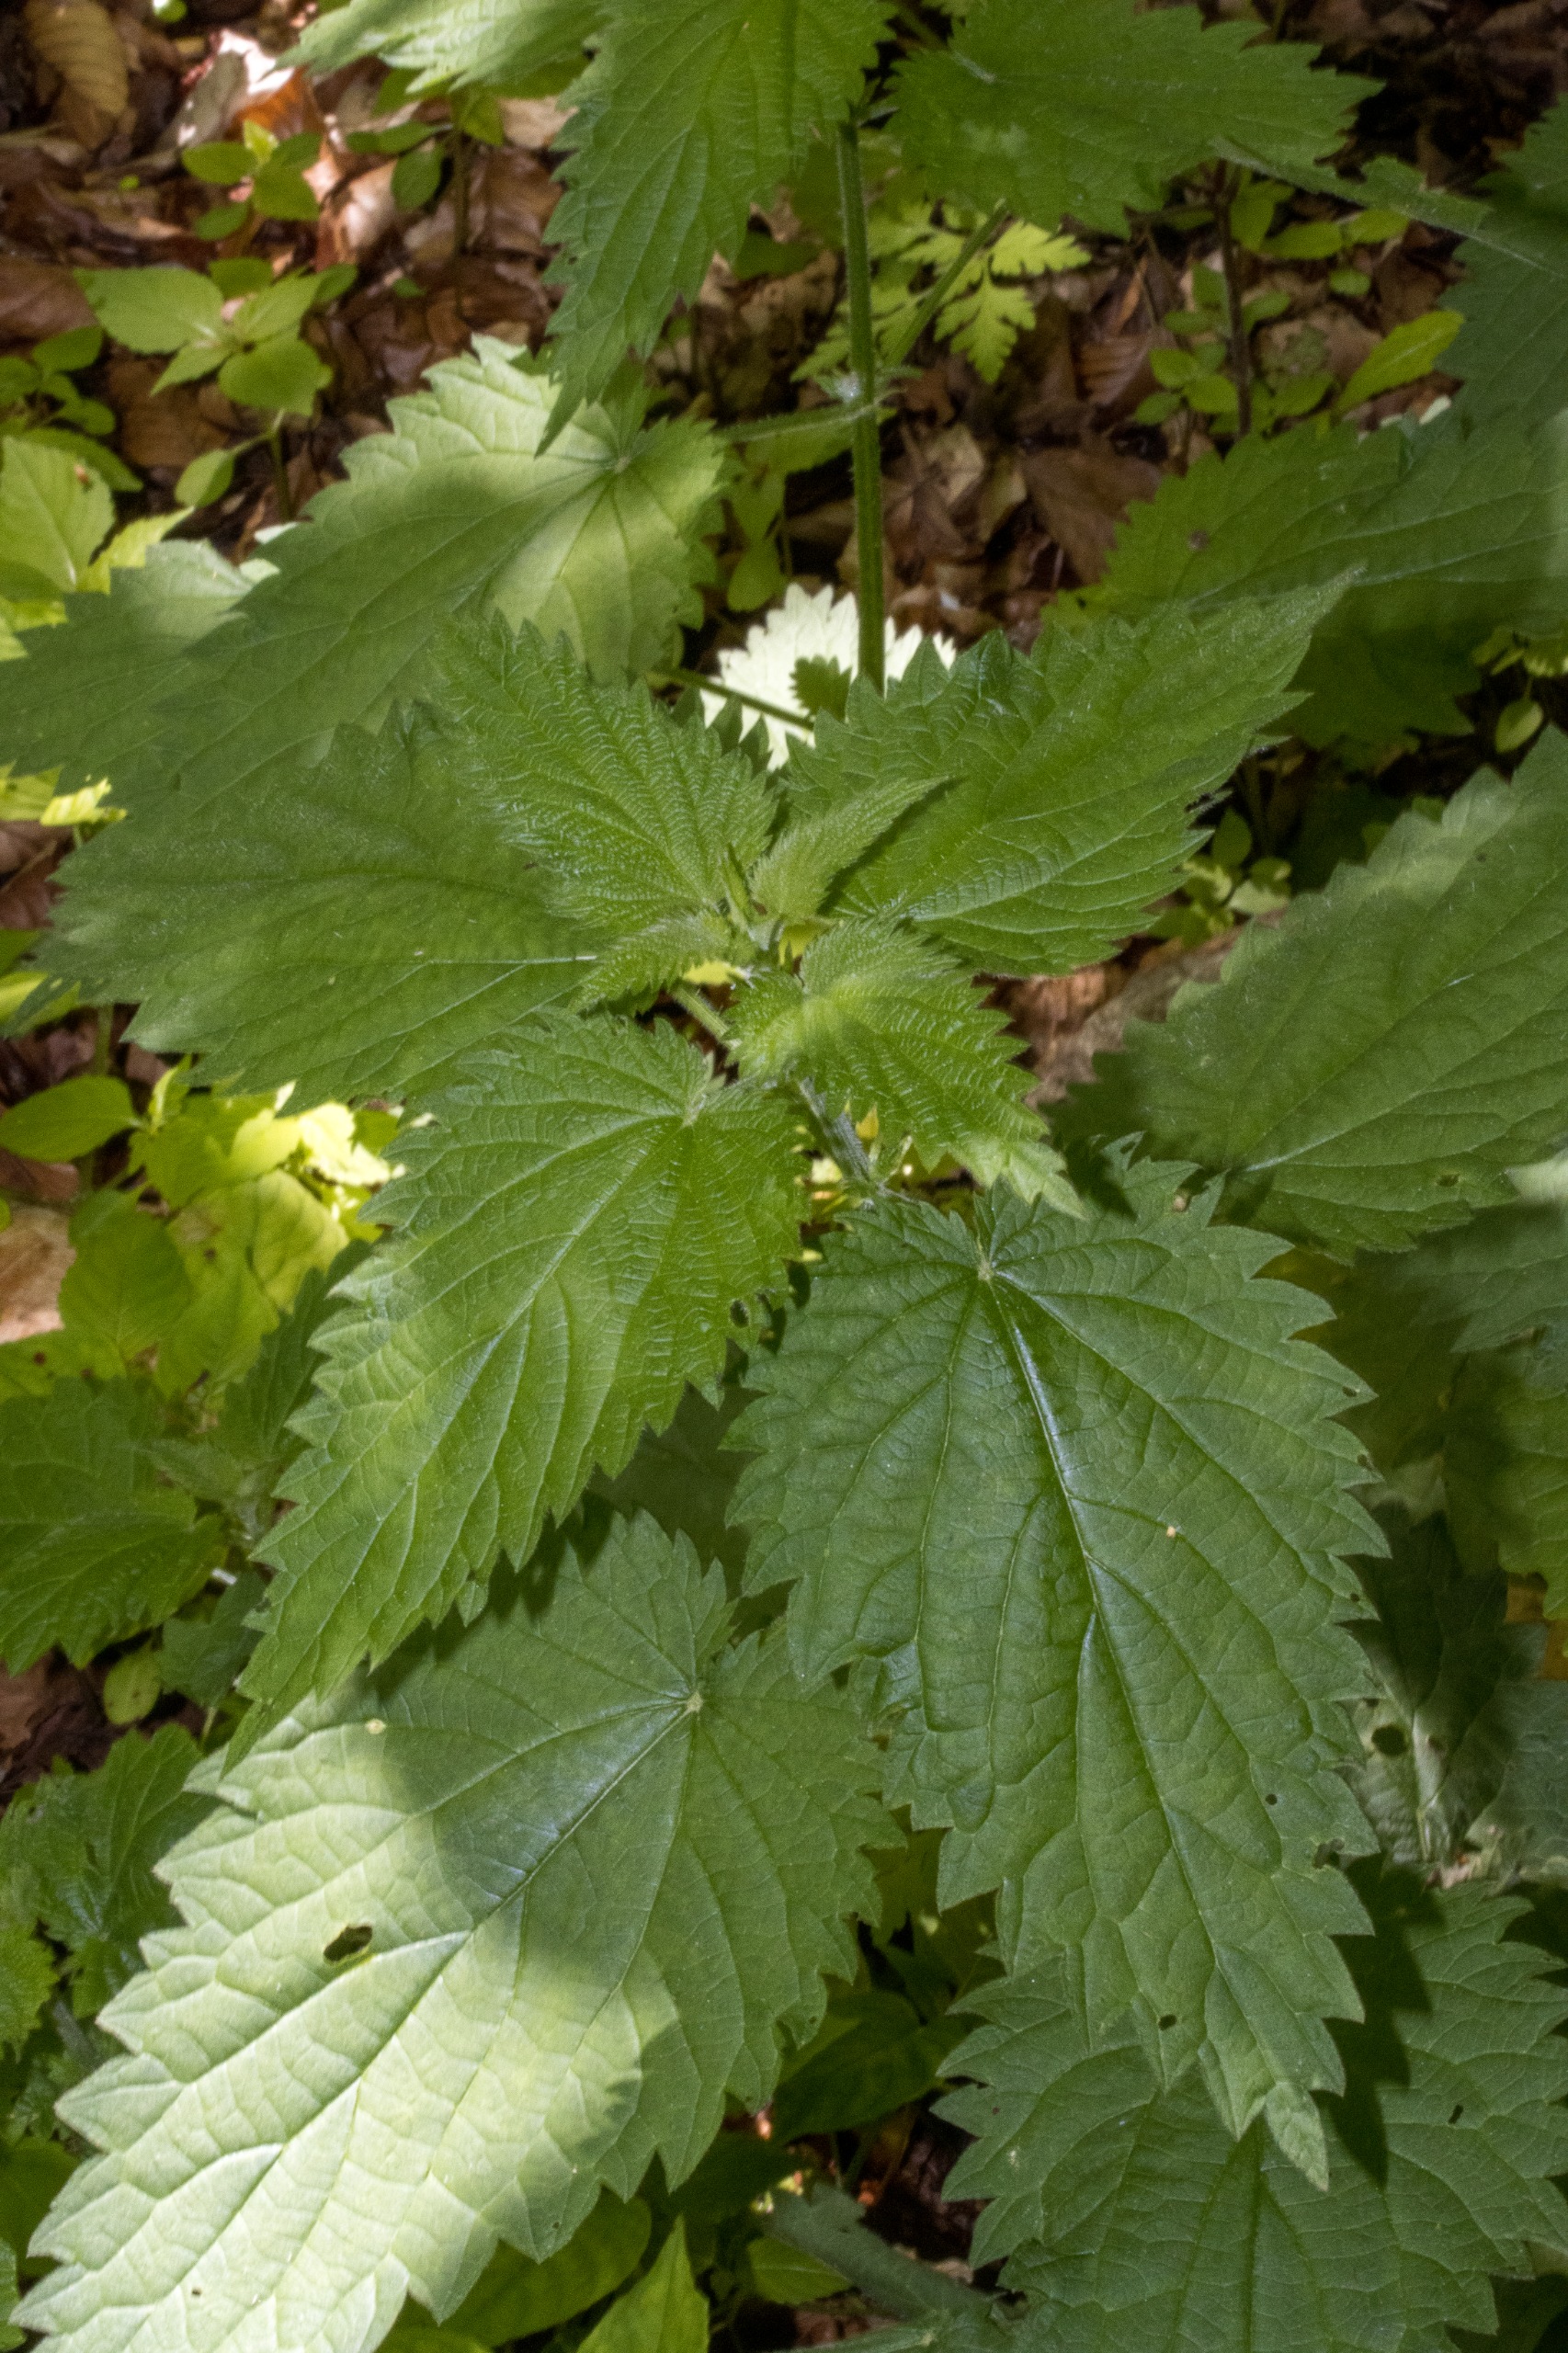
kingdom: Plantae
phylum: Tracheophyta
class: Magnoliopsida
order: Rosales
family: Urticaceae
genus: Urtica
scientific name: Urtica dioica
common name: Stor nælde
